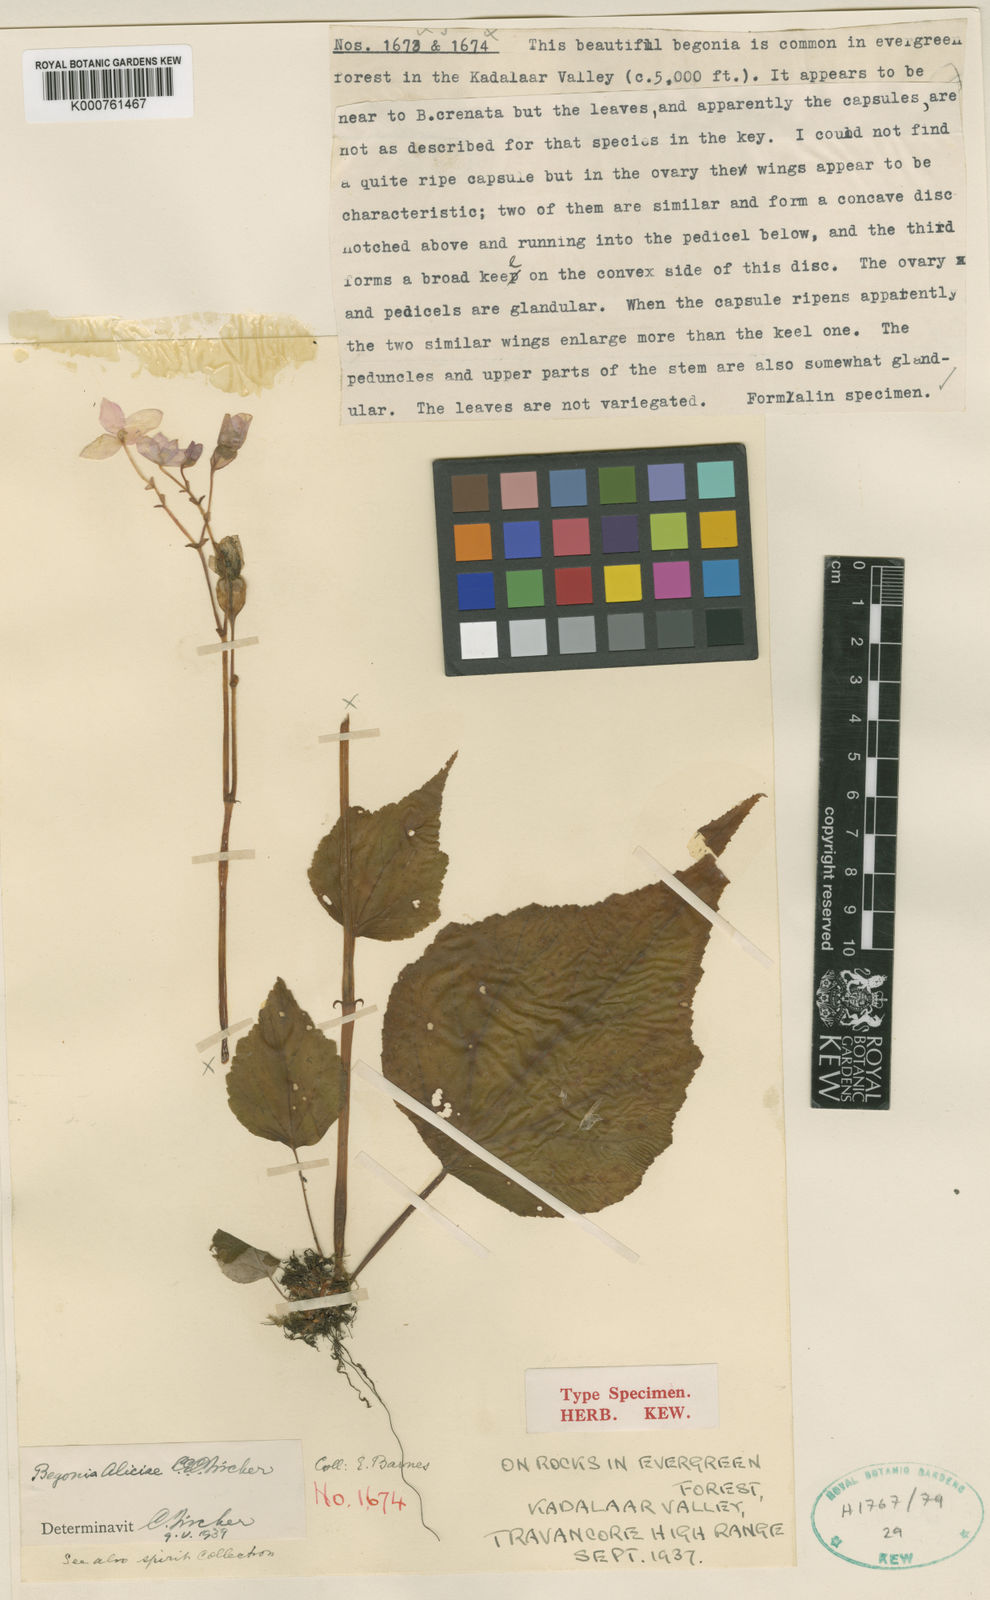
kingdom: Plantae
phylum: Tracheophyta
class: Magnoliopsida
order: Cucurbitales
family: Begoniaceae
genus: Begonia
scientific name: Begonia crenata
